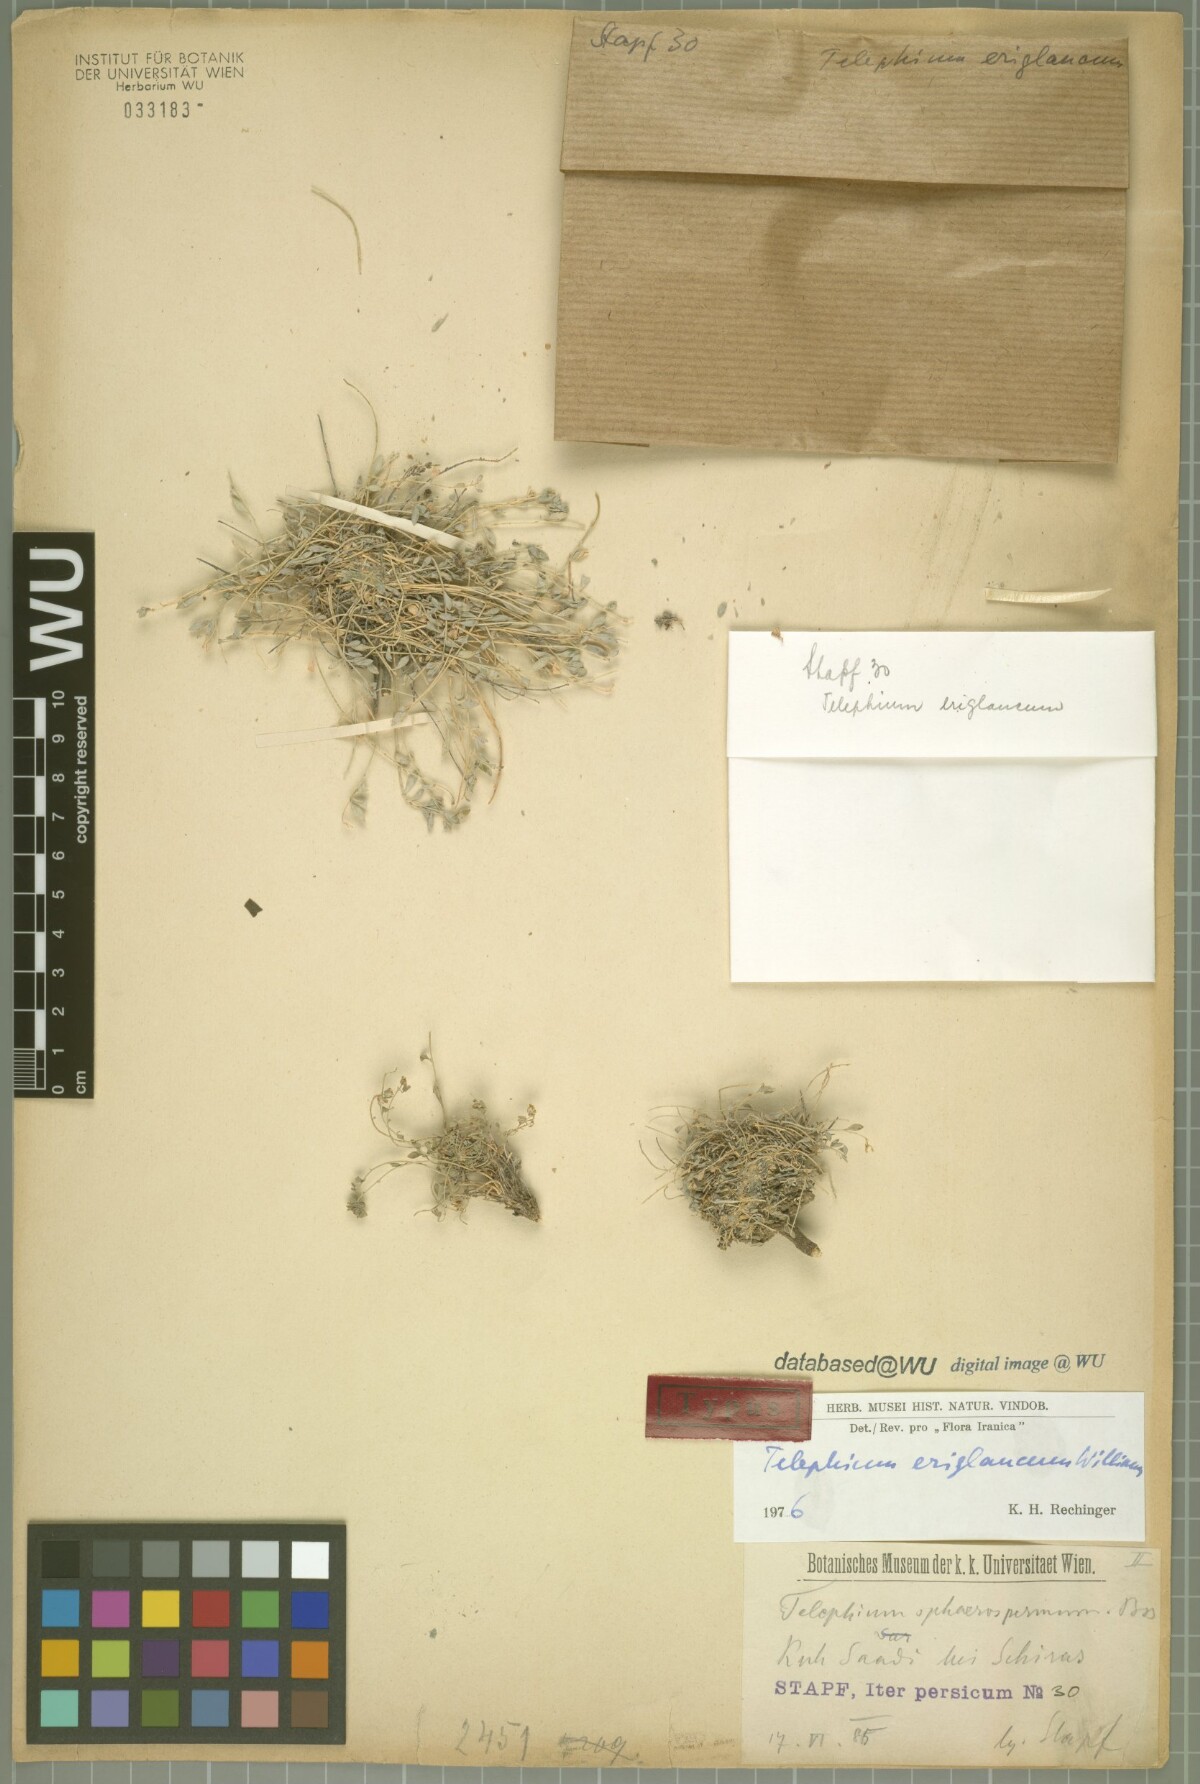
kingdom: Plantae
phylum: Tracheophyta
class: Magnoliopsida
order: Caryophyllales
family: Caryophyllaceae
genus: Telephium
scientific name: Telephium eriglaucum
